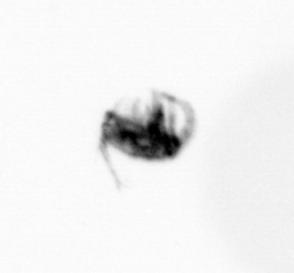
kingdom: Animalia
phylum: Arthropoda
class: Copepoda
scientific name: Copepoda
